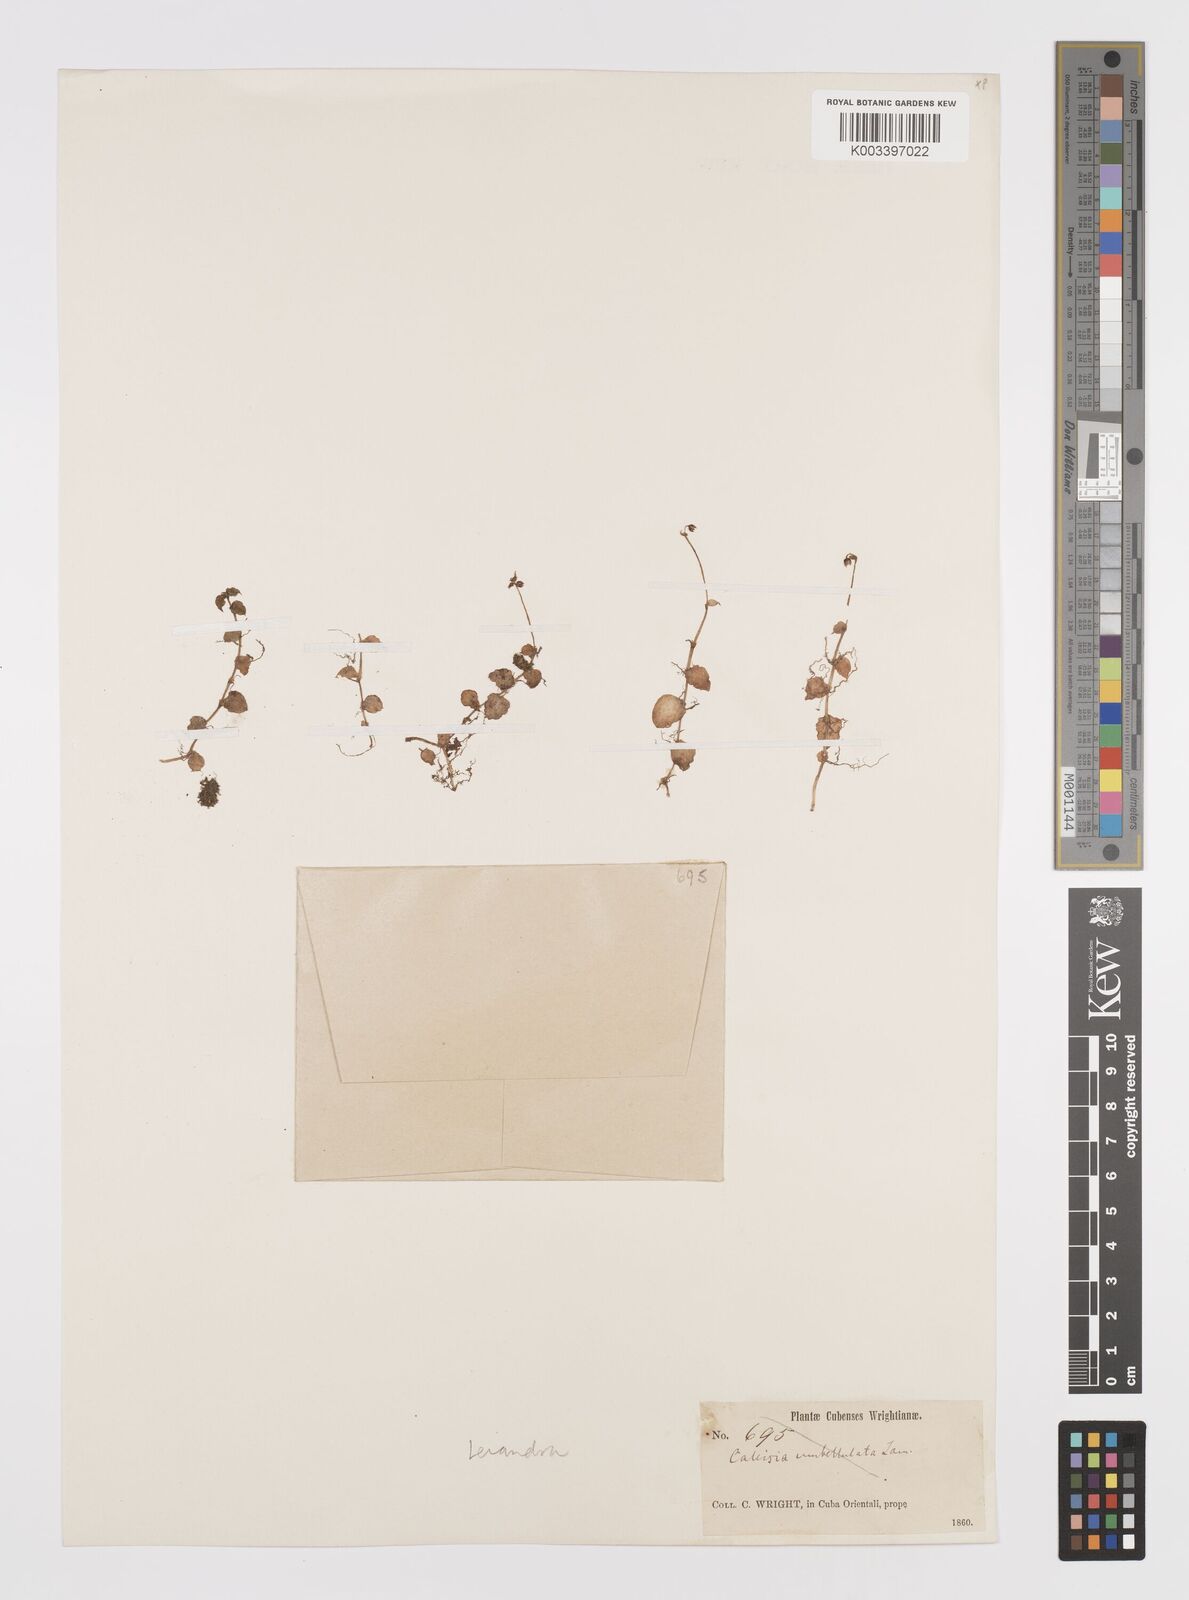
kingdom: Plantae
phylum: Tracheophyta
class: Liliopsida
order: Commelinales
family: Commelinaceae
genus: Callisia
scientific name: Callisia cordifolia
